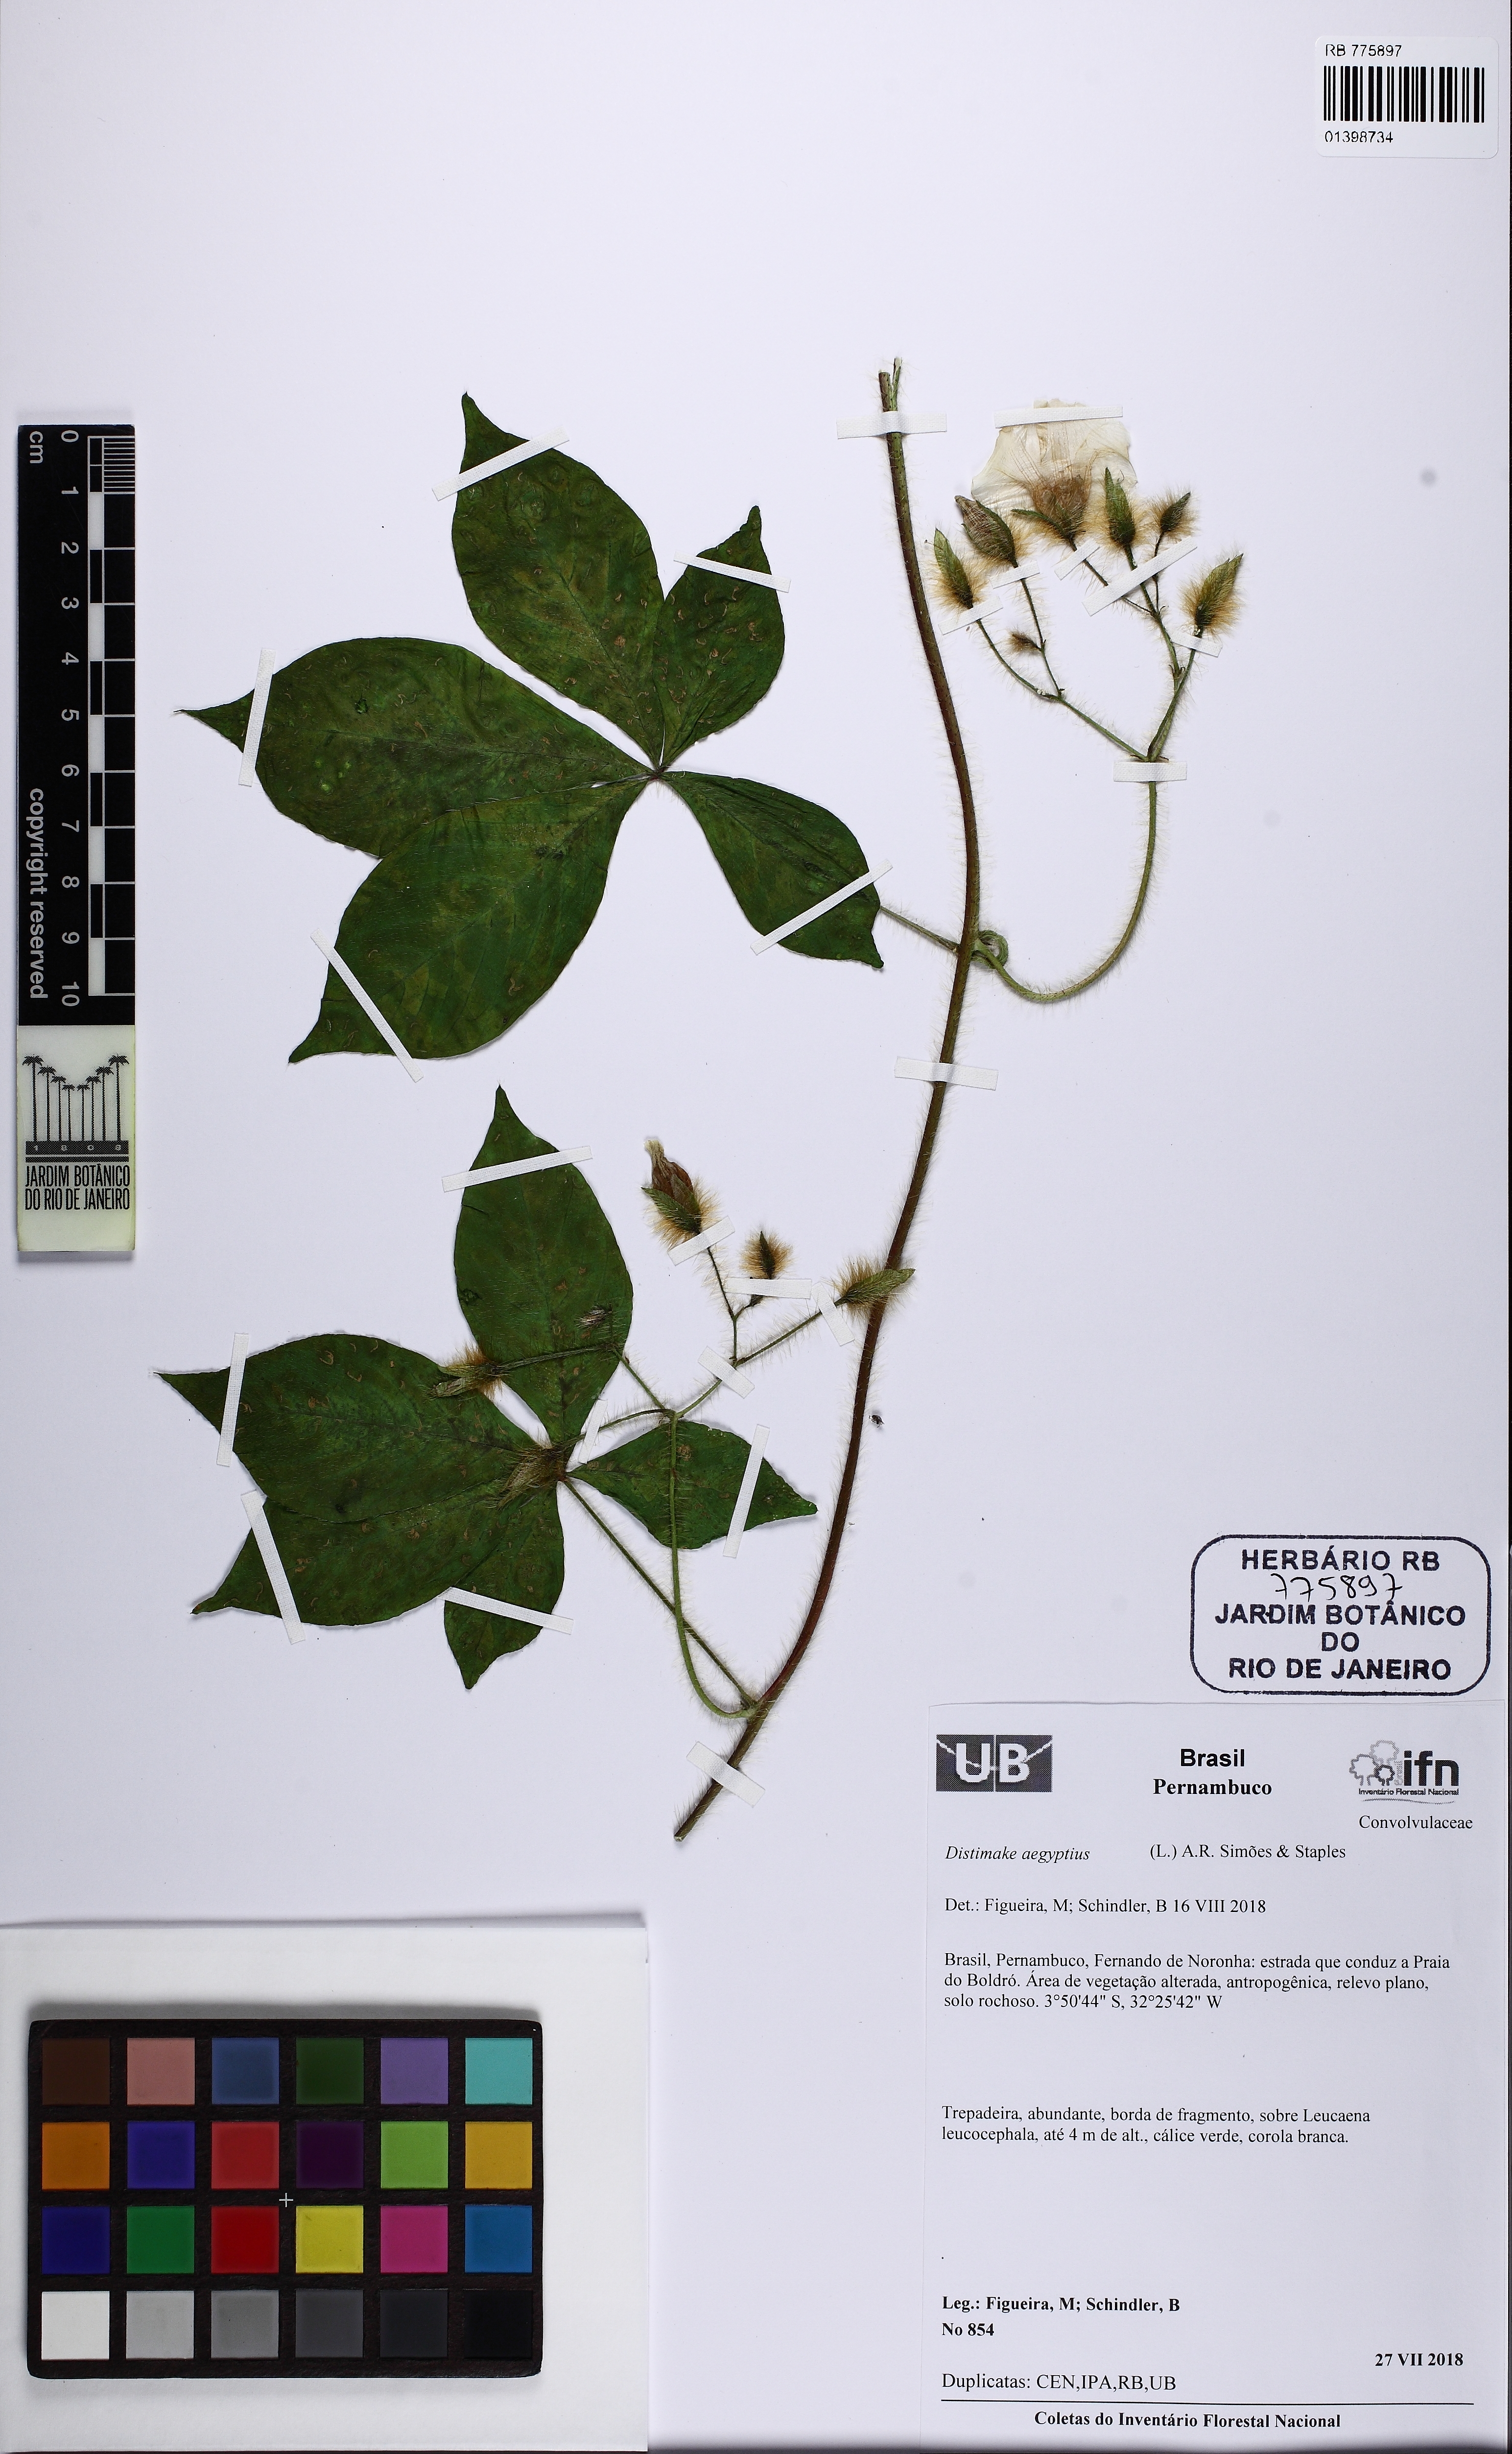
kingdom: Plantae
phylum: Tracheophyta
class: Magnoliopsida
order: Solanales
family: Convolvulaceae
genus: Distimake
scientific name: Distimake aegyptius
